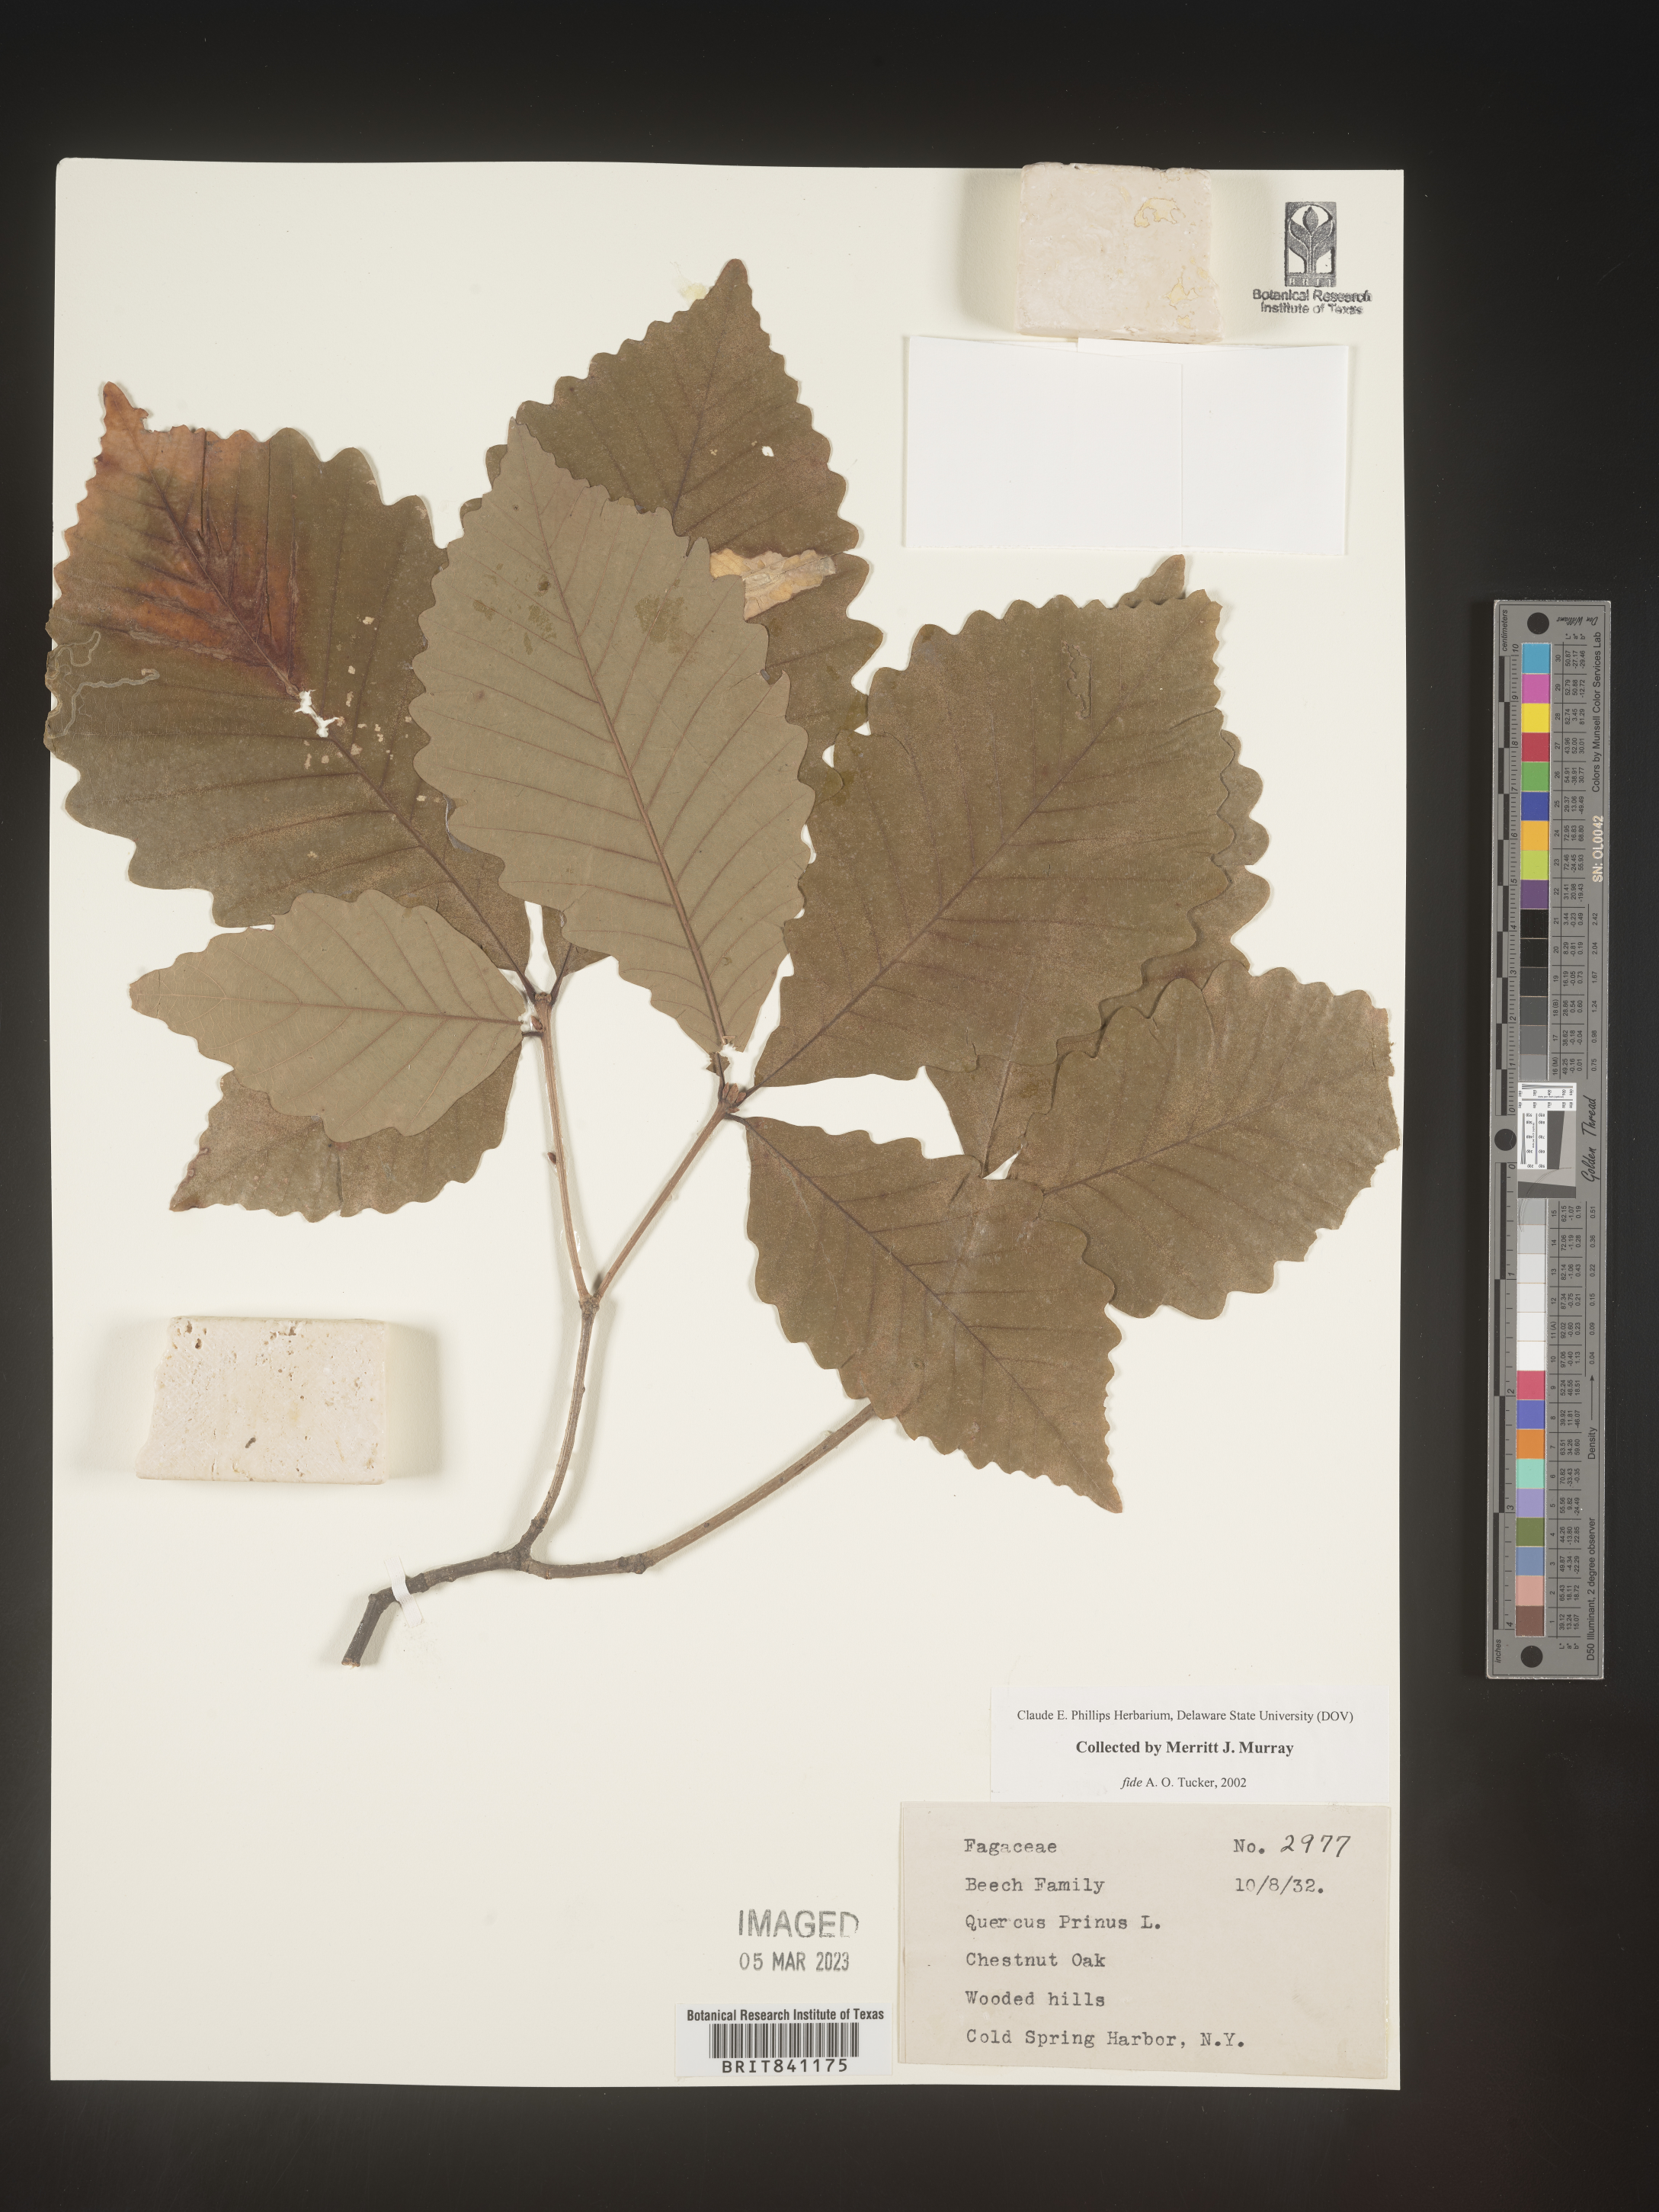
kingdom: Plantae
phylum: Tracheophyta
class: Magnoliopsida
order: Fagales
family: Fagaceae
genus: Quercus
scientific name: Quercus michauxii
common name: Swamp chestnut oak
